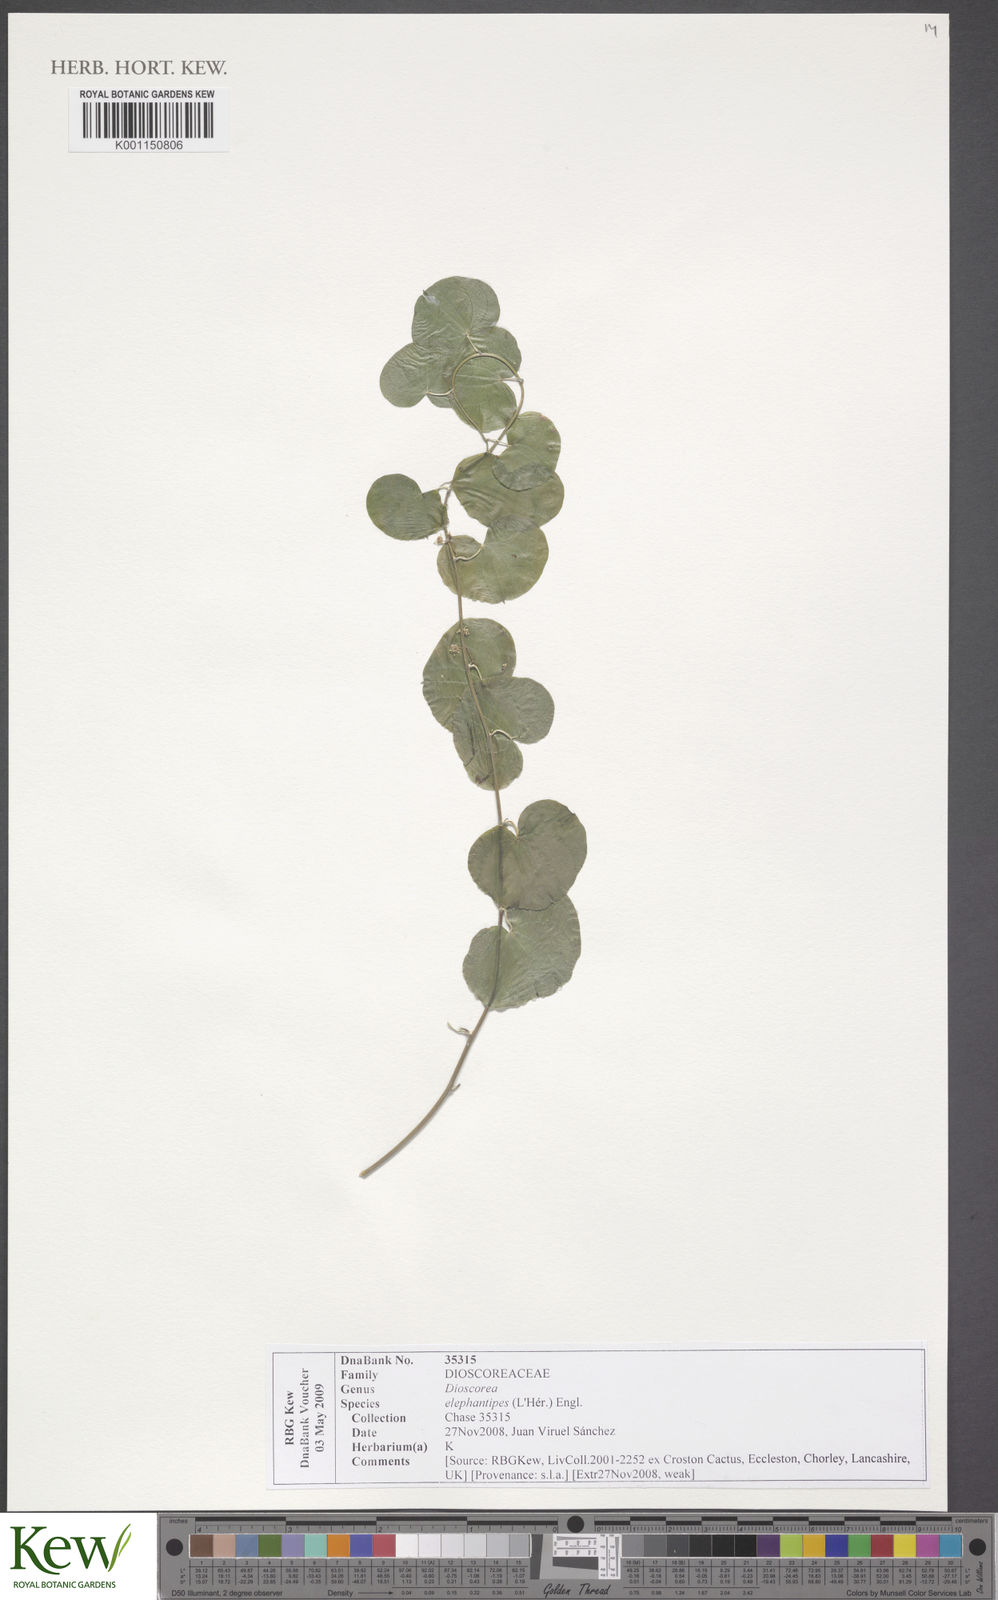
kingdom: Plantae
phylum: Tracheophyta
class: Liliopsida
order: Dioscoreales
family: Dioscoreaceae
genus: Dioscorea
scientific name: Dioscorea
